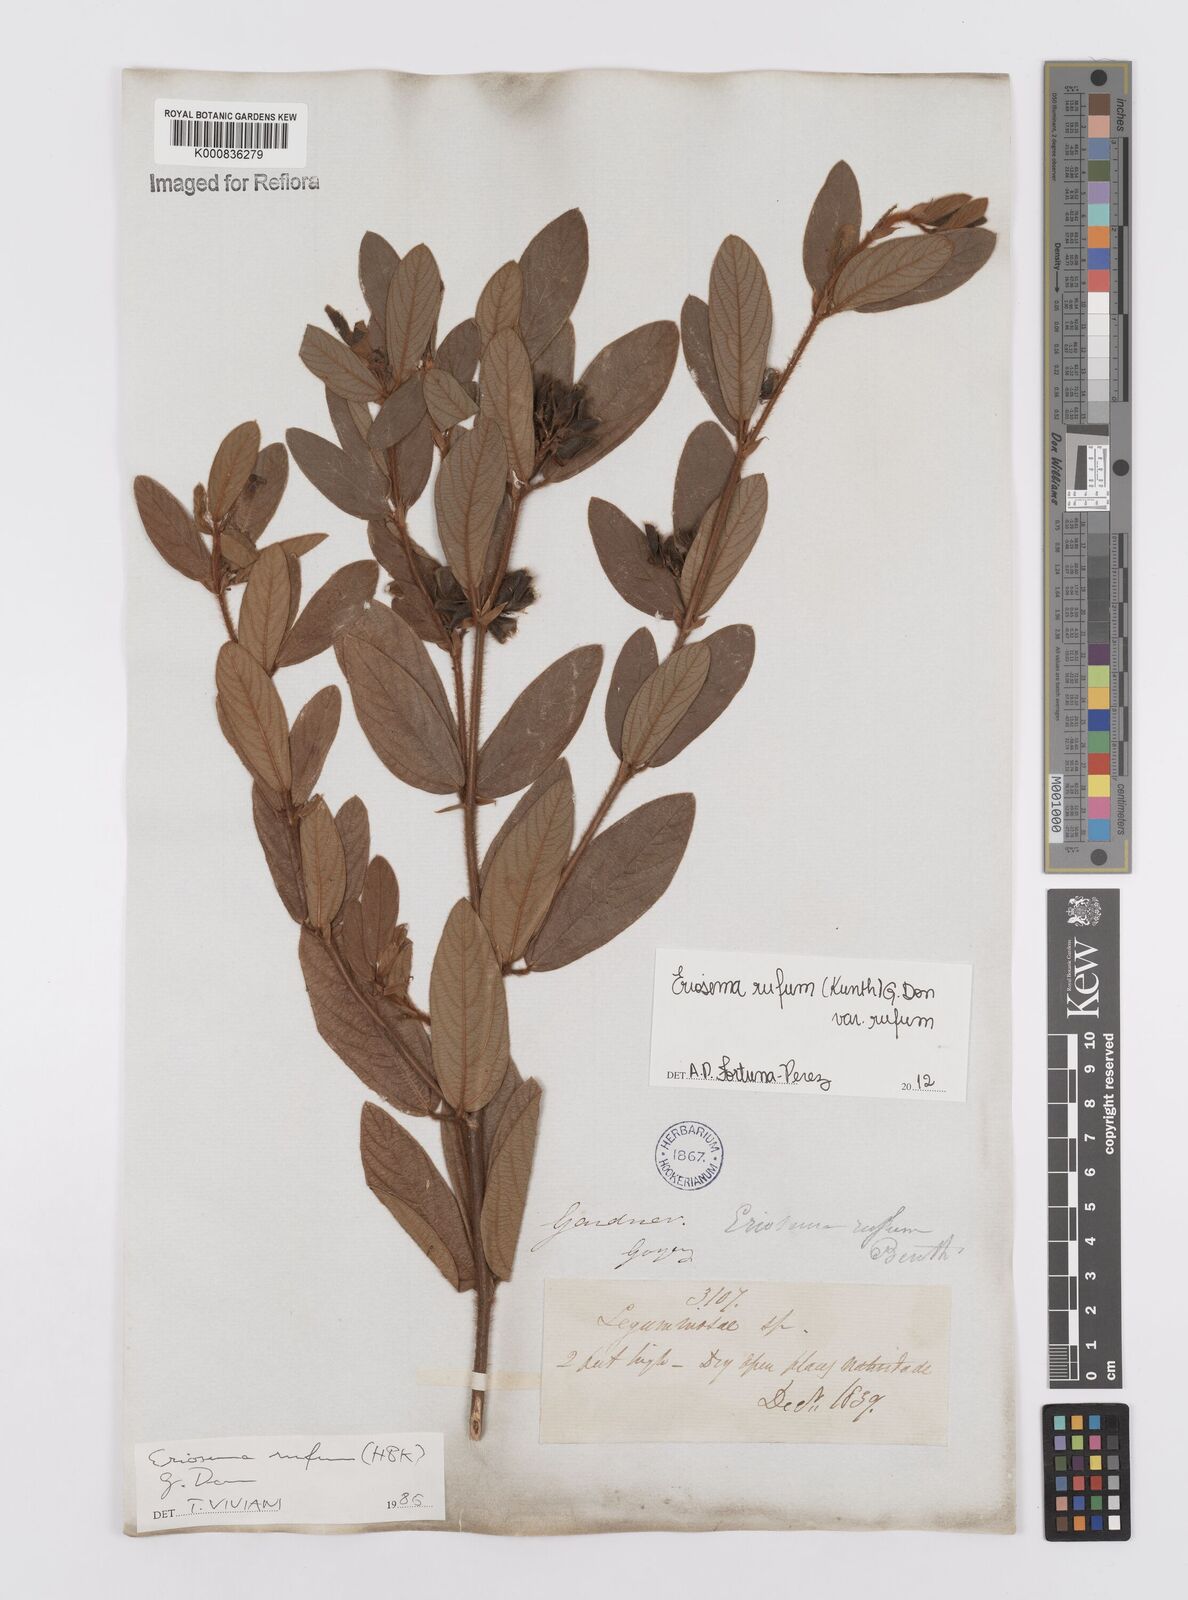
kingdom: Plantae
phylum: Tracheophyta
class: Magnoliopsida
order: Fabales
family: Fabaceae
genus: Eriosema
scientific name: Eriosema rufum
